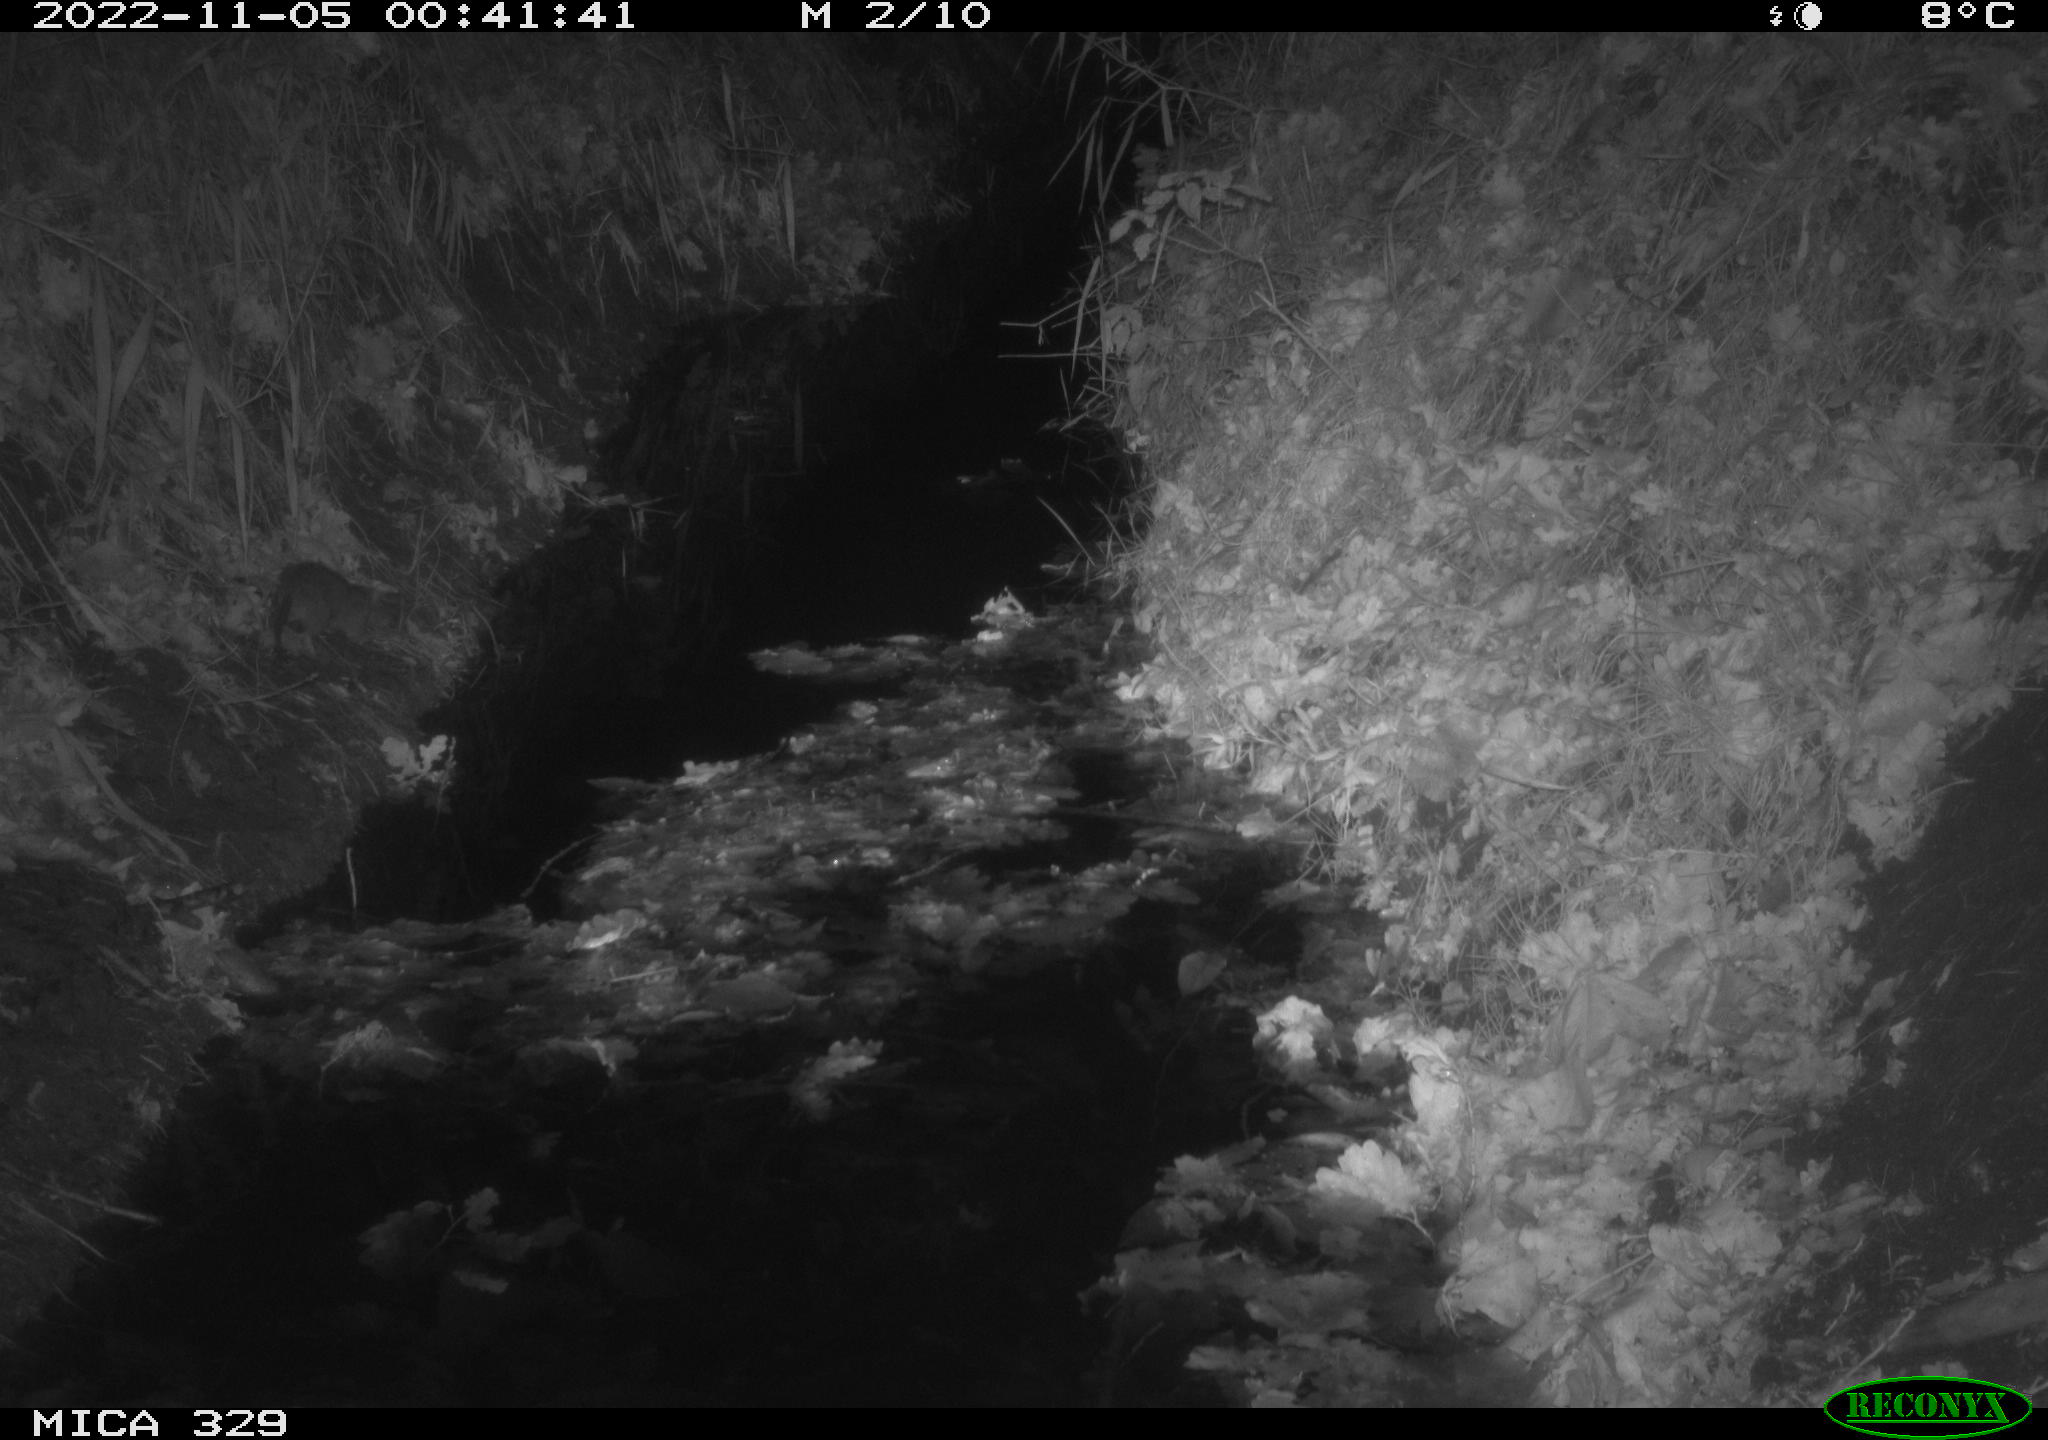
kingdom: Animalia
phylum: Chordata
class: Mammalia
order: Rodentia
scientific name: Rodentia
